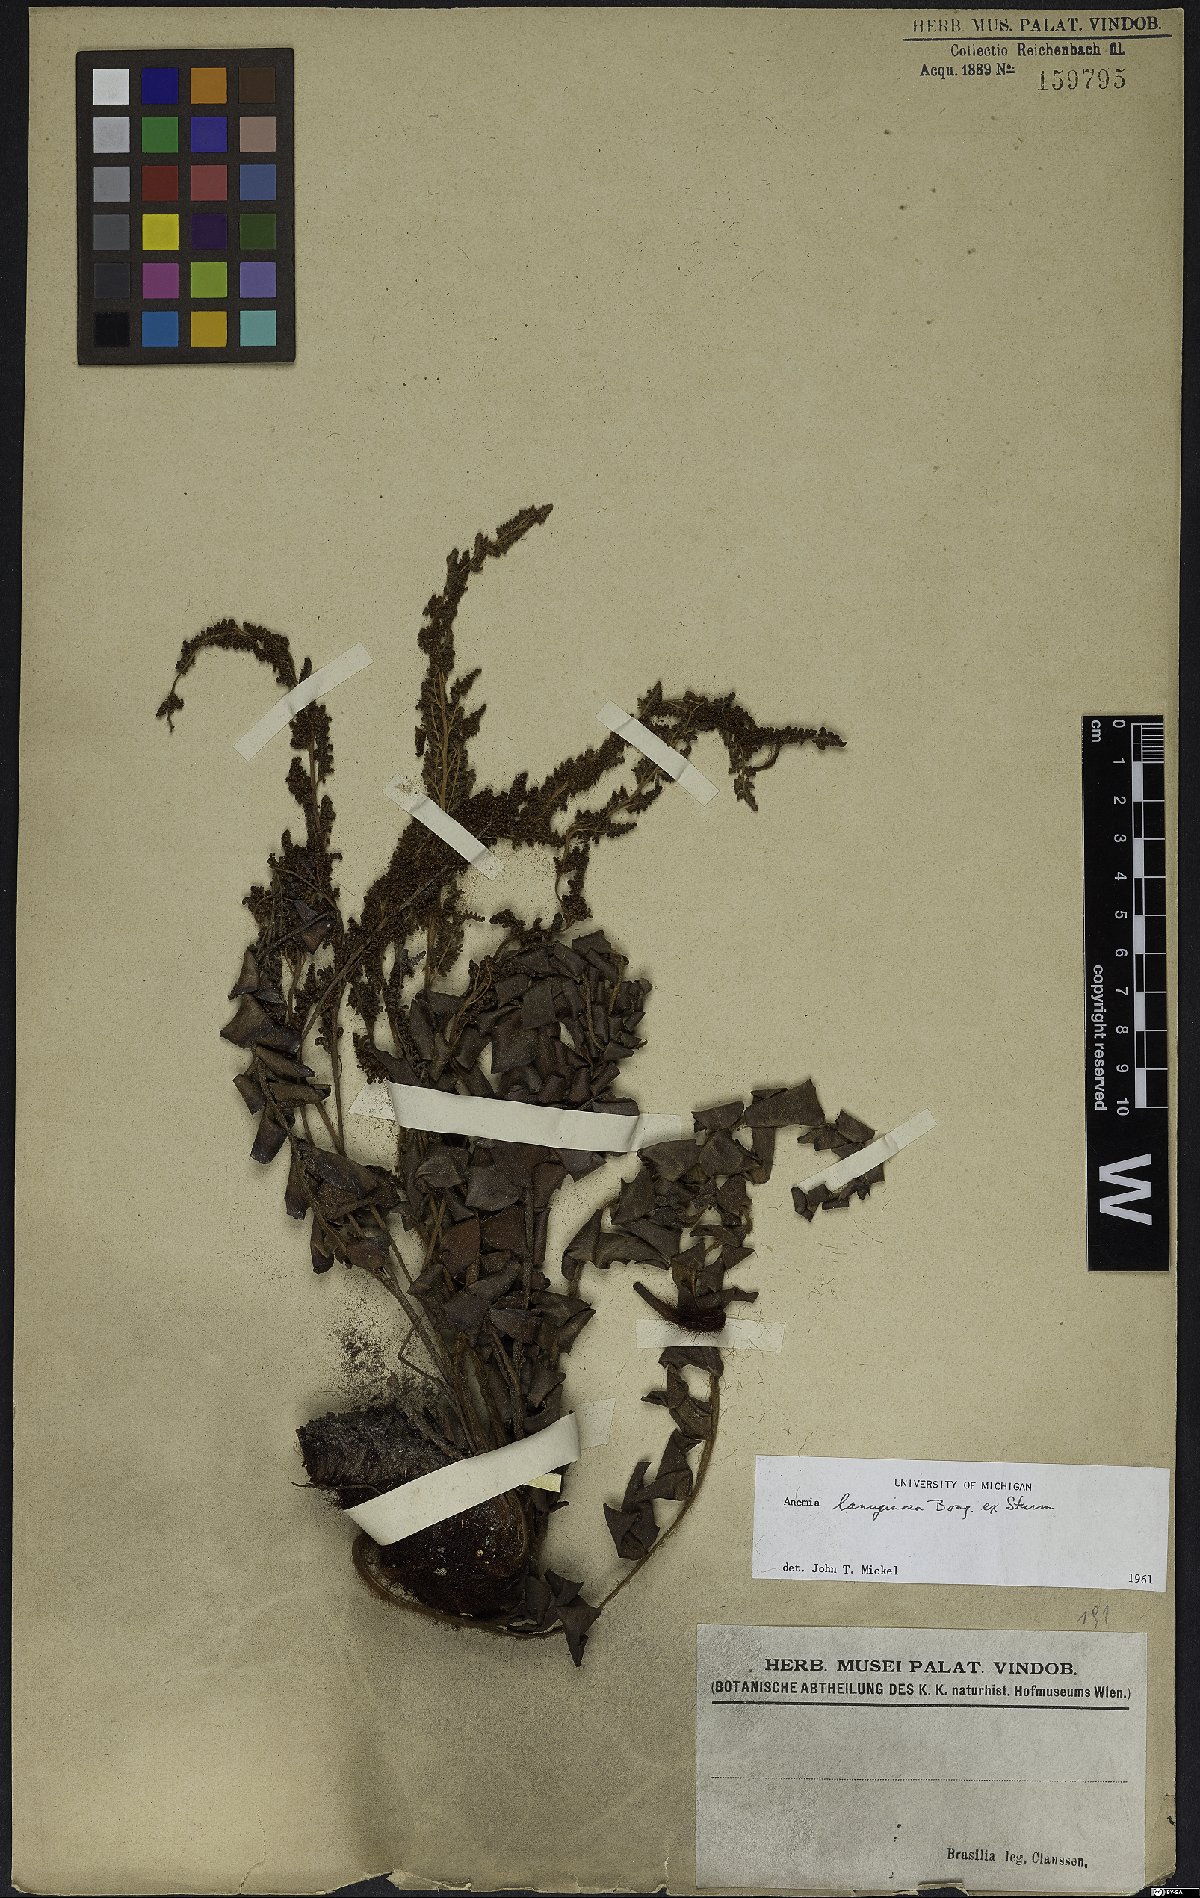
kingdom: Plantae
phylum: Tracheophyta
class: Polypodiopsida
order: Schizaeales
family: Anemiaceae
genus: Anemia
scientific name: Anemia lanuginosa
